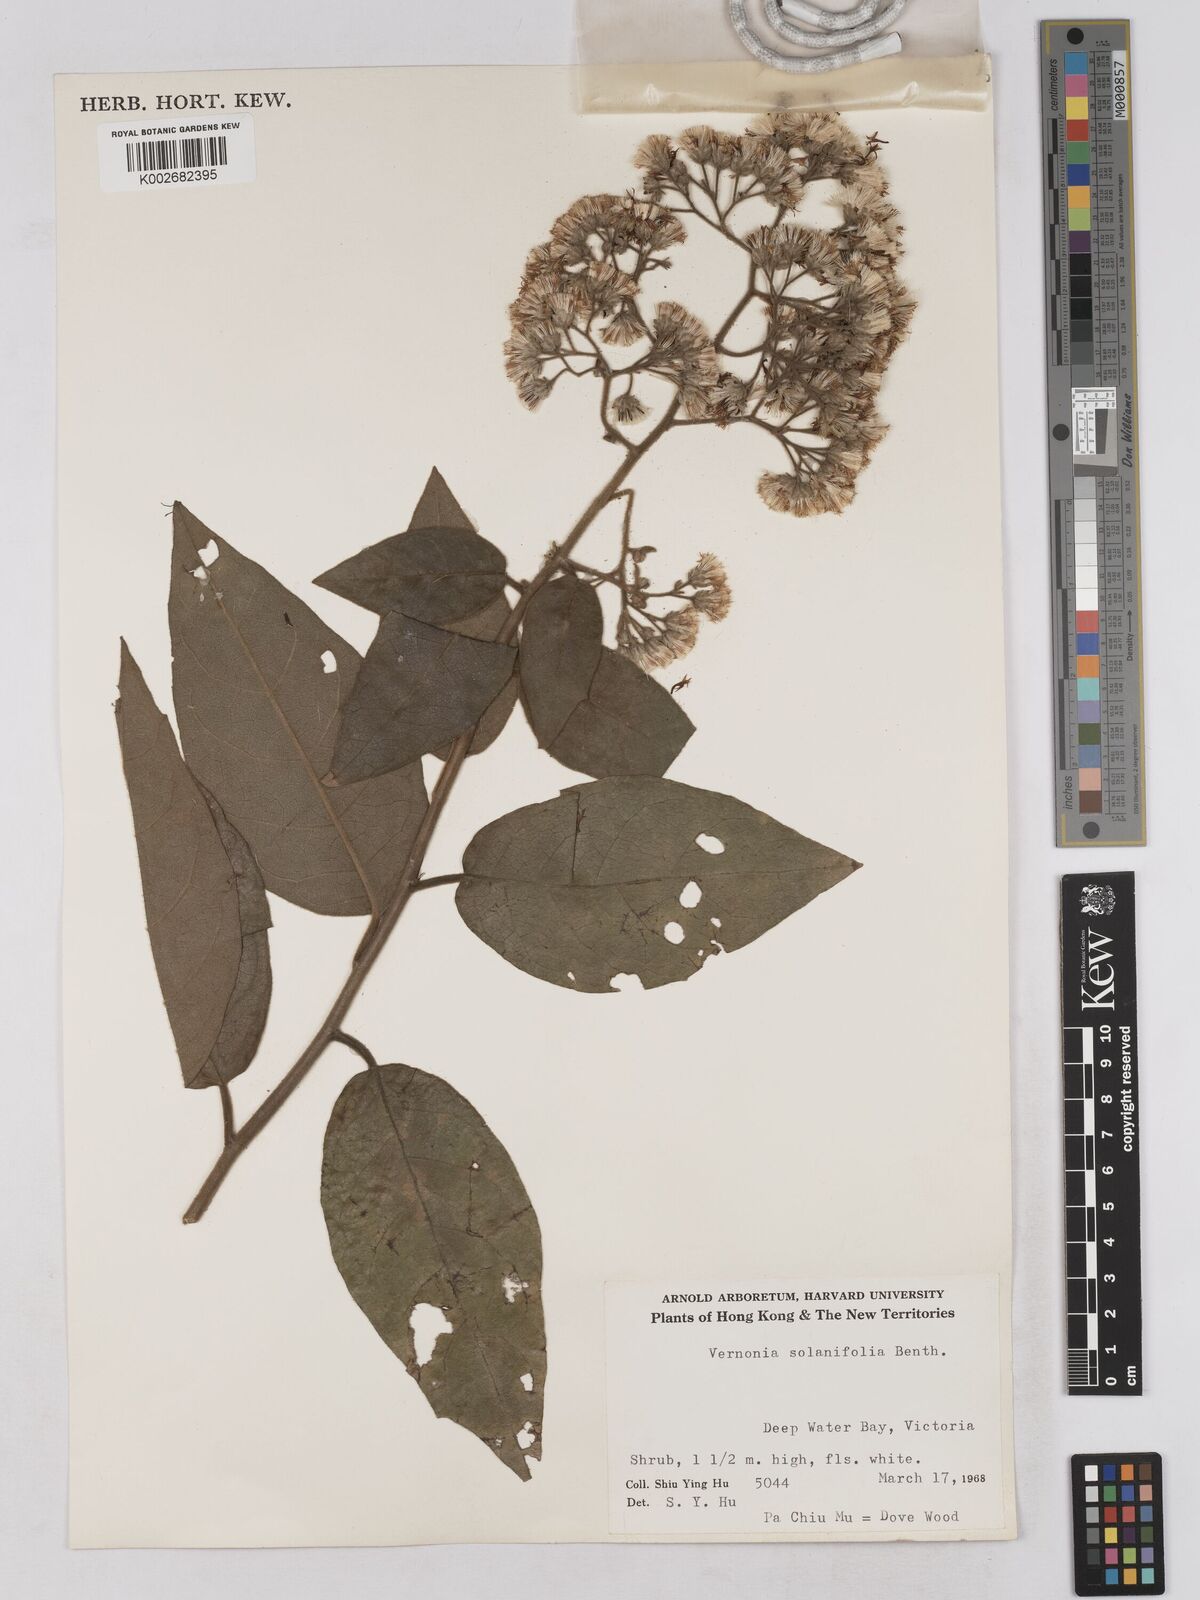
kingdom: Plantae
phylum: Tracheophyta
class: Magnoliopsida
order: Asterales
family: Asteraceae
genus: Strobocalyx
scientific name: Strobocalyx solanifolia
